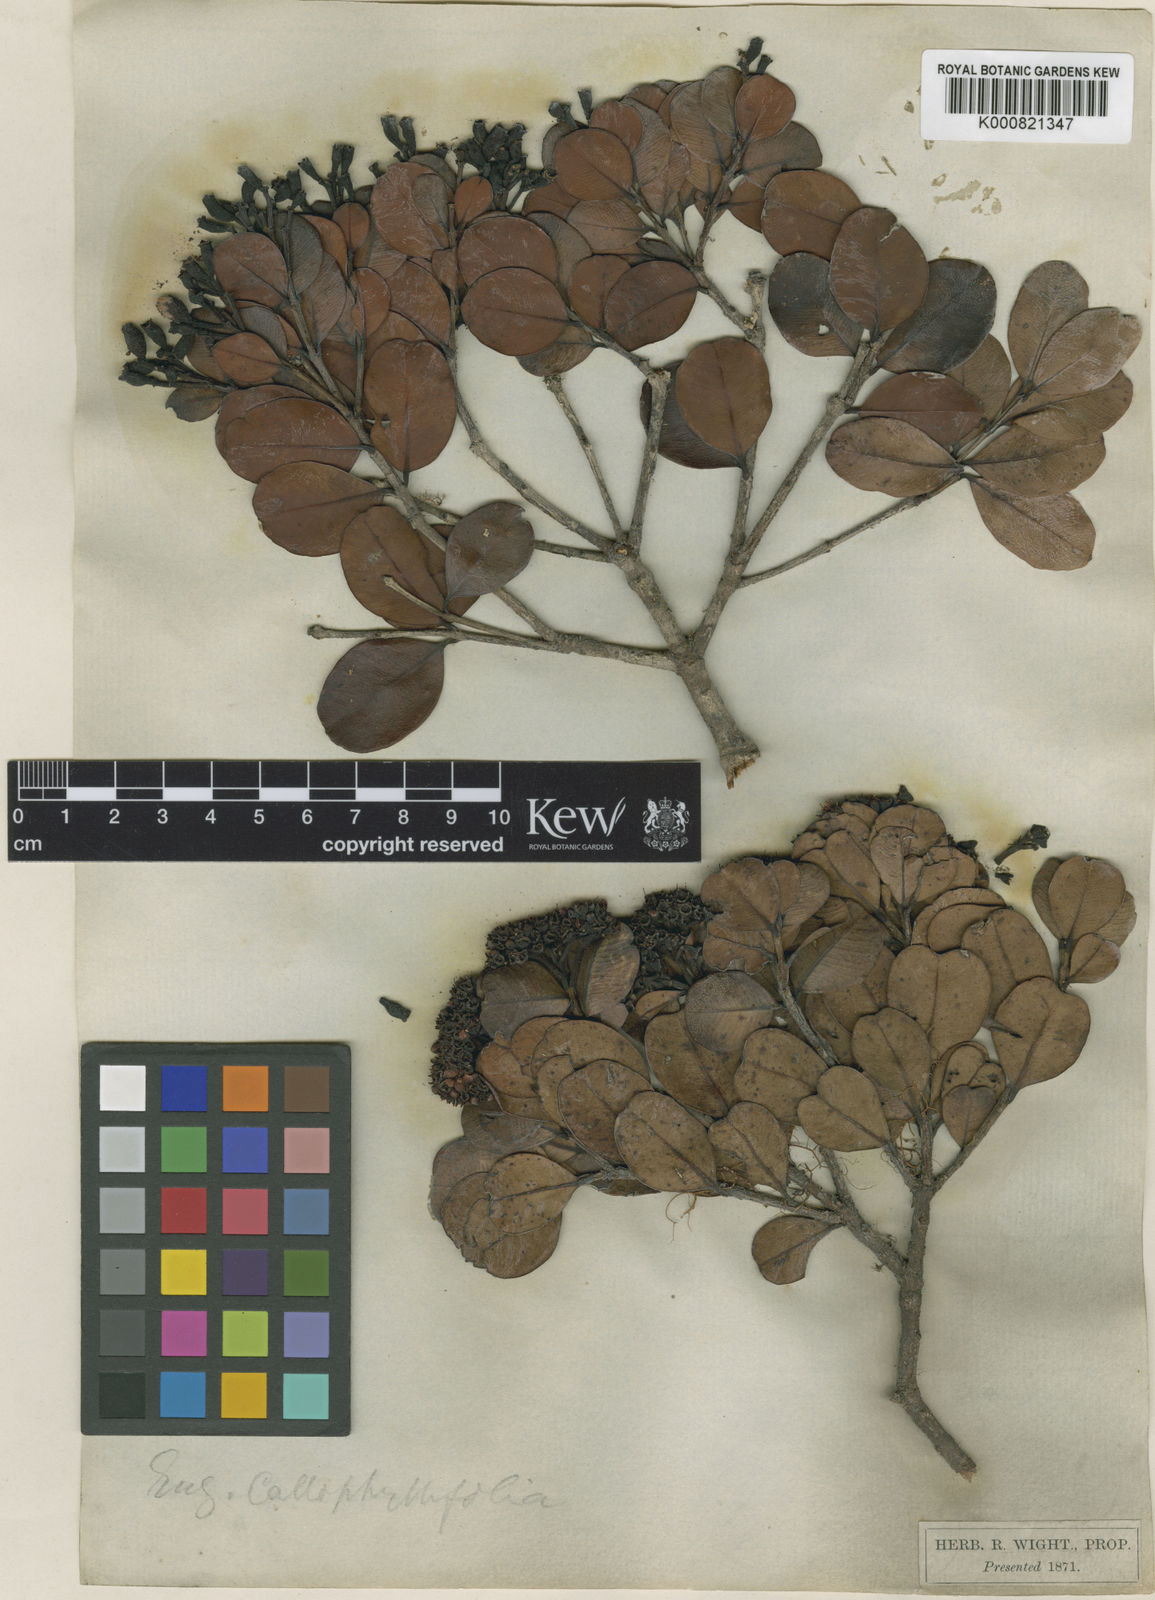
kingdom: Plantae
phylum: Tracheophyta
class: Magnoliopsida
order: Myrtales
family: Myrtaceae
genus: Syzygium
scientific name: Syzygium calophyllifolium
